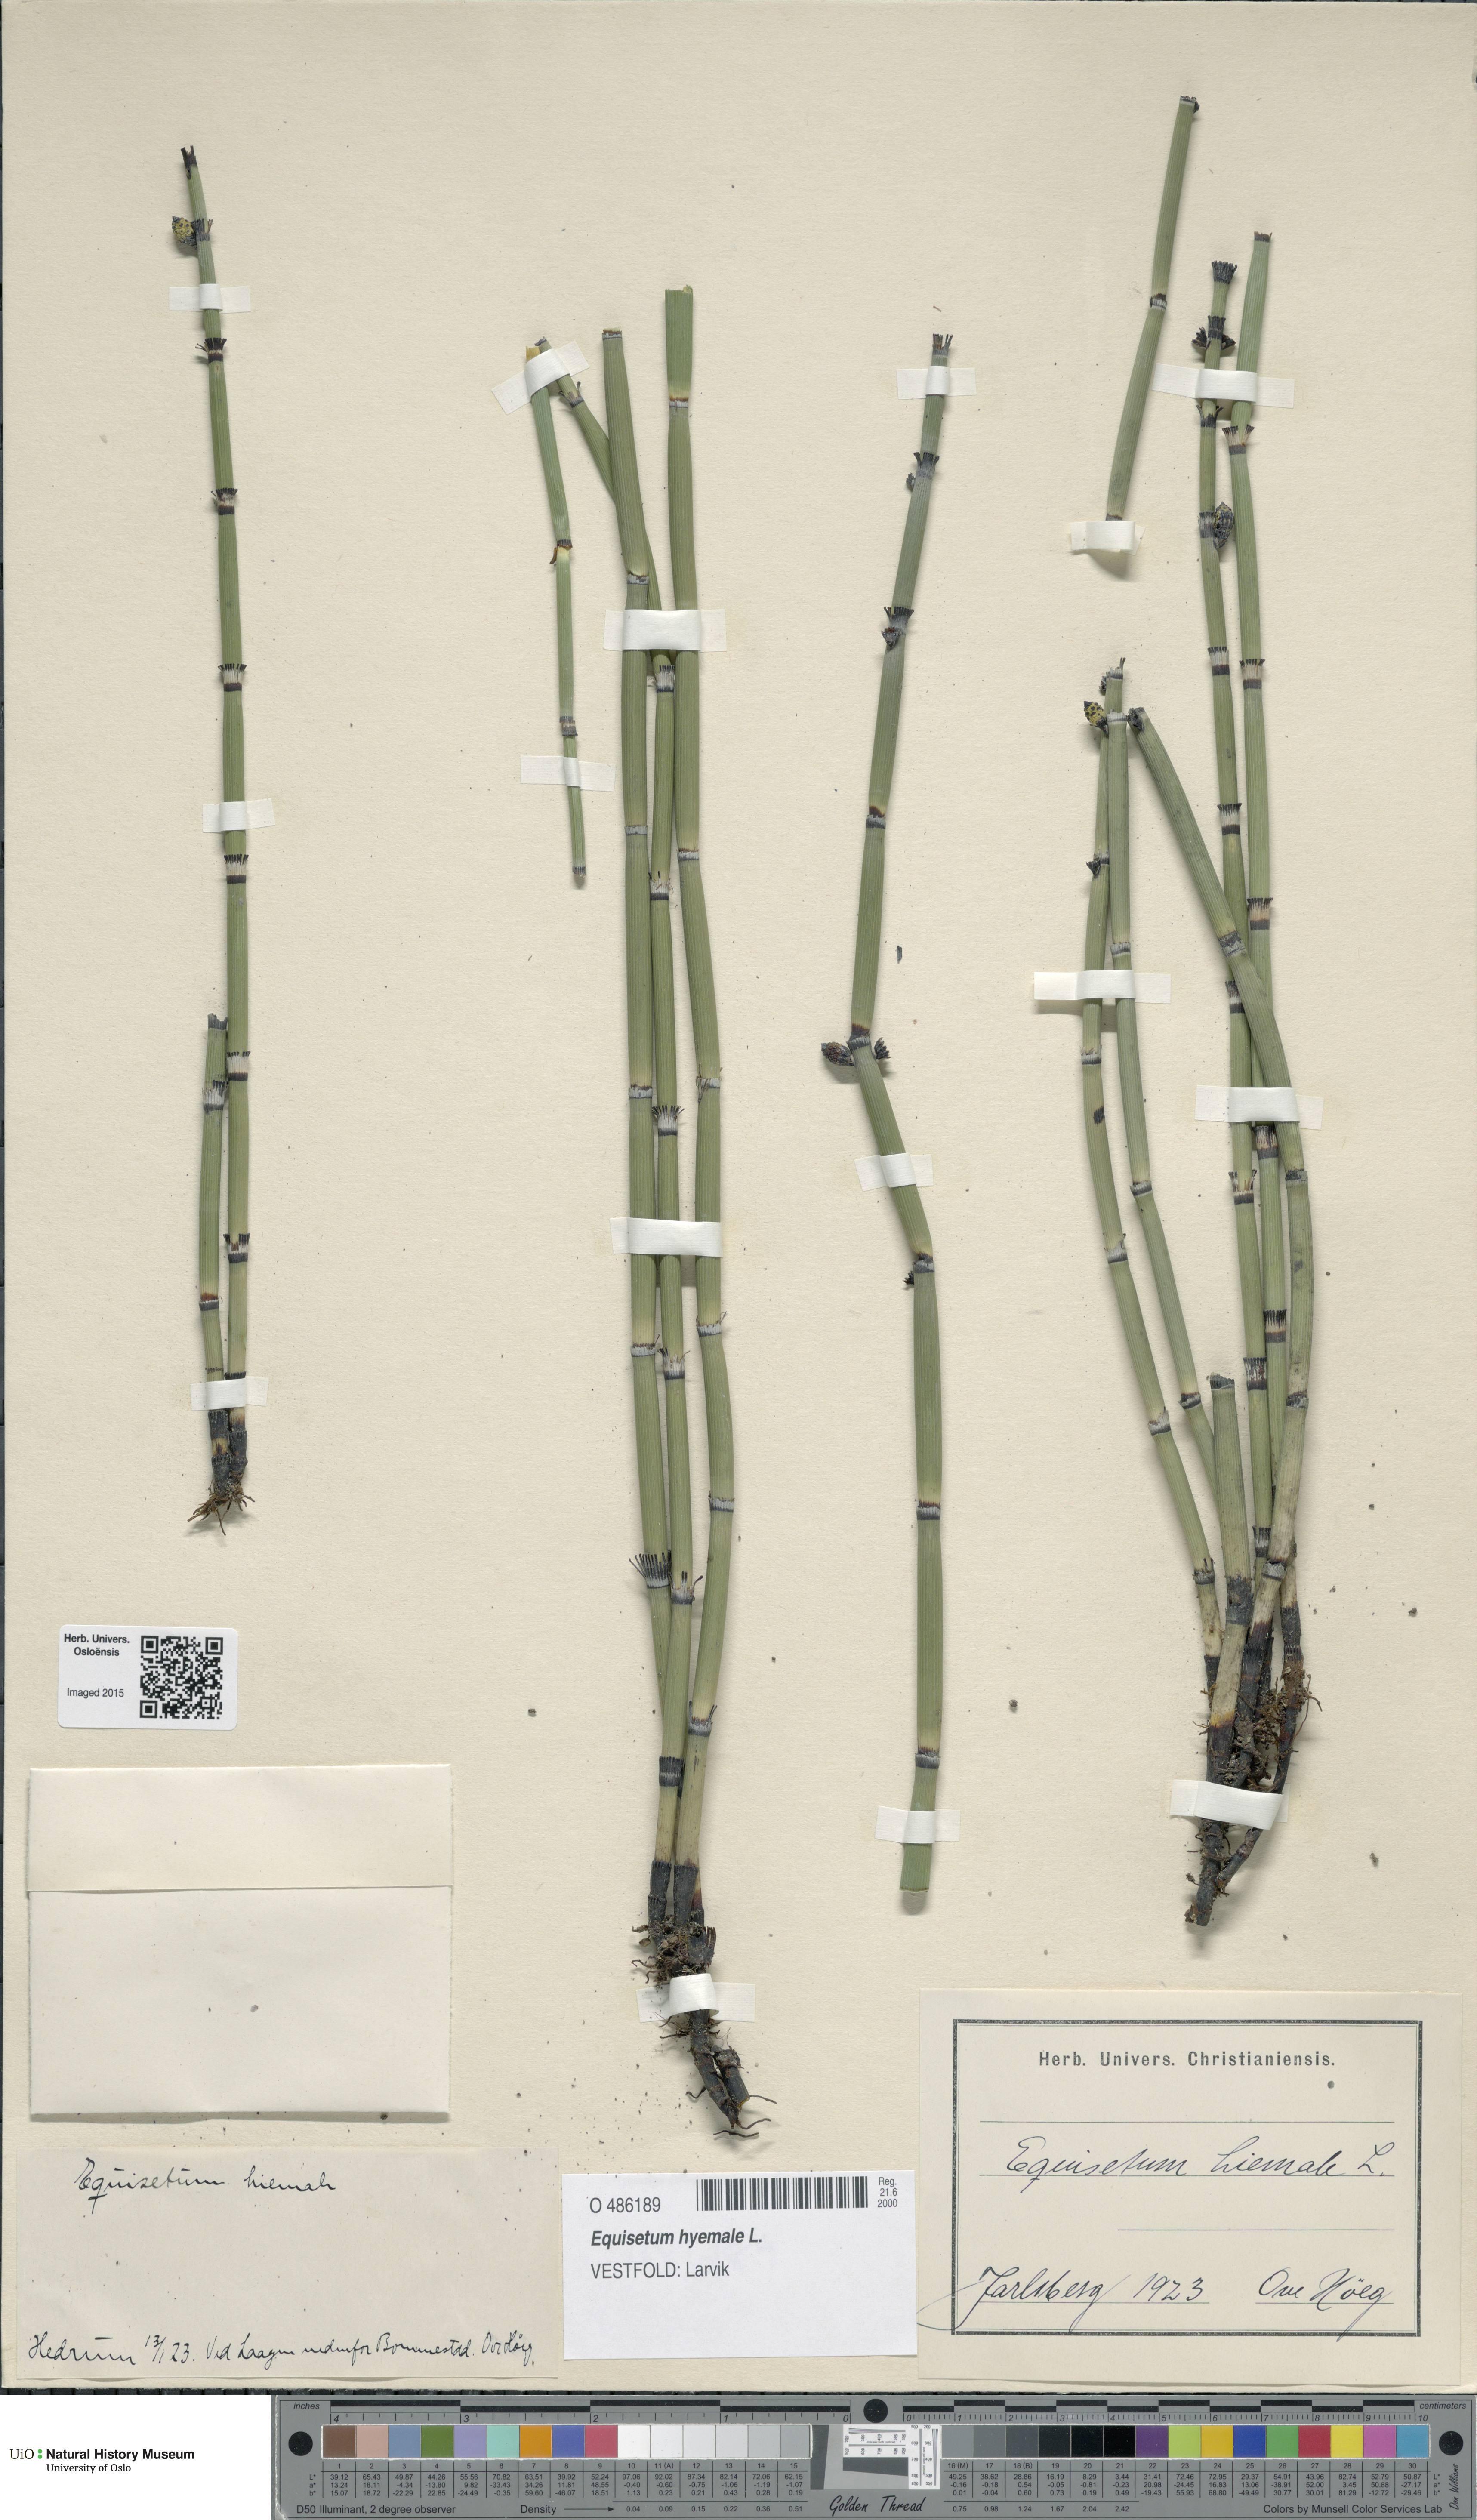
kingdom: Plantae
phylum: Tracheophyta
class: Polypodiopsida
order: Equisetales
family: Equisetaceae
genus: Equisetum
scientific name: Equisetum hyemale
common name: Rough horsetail
